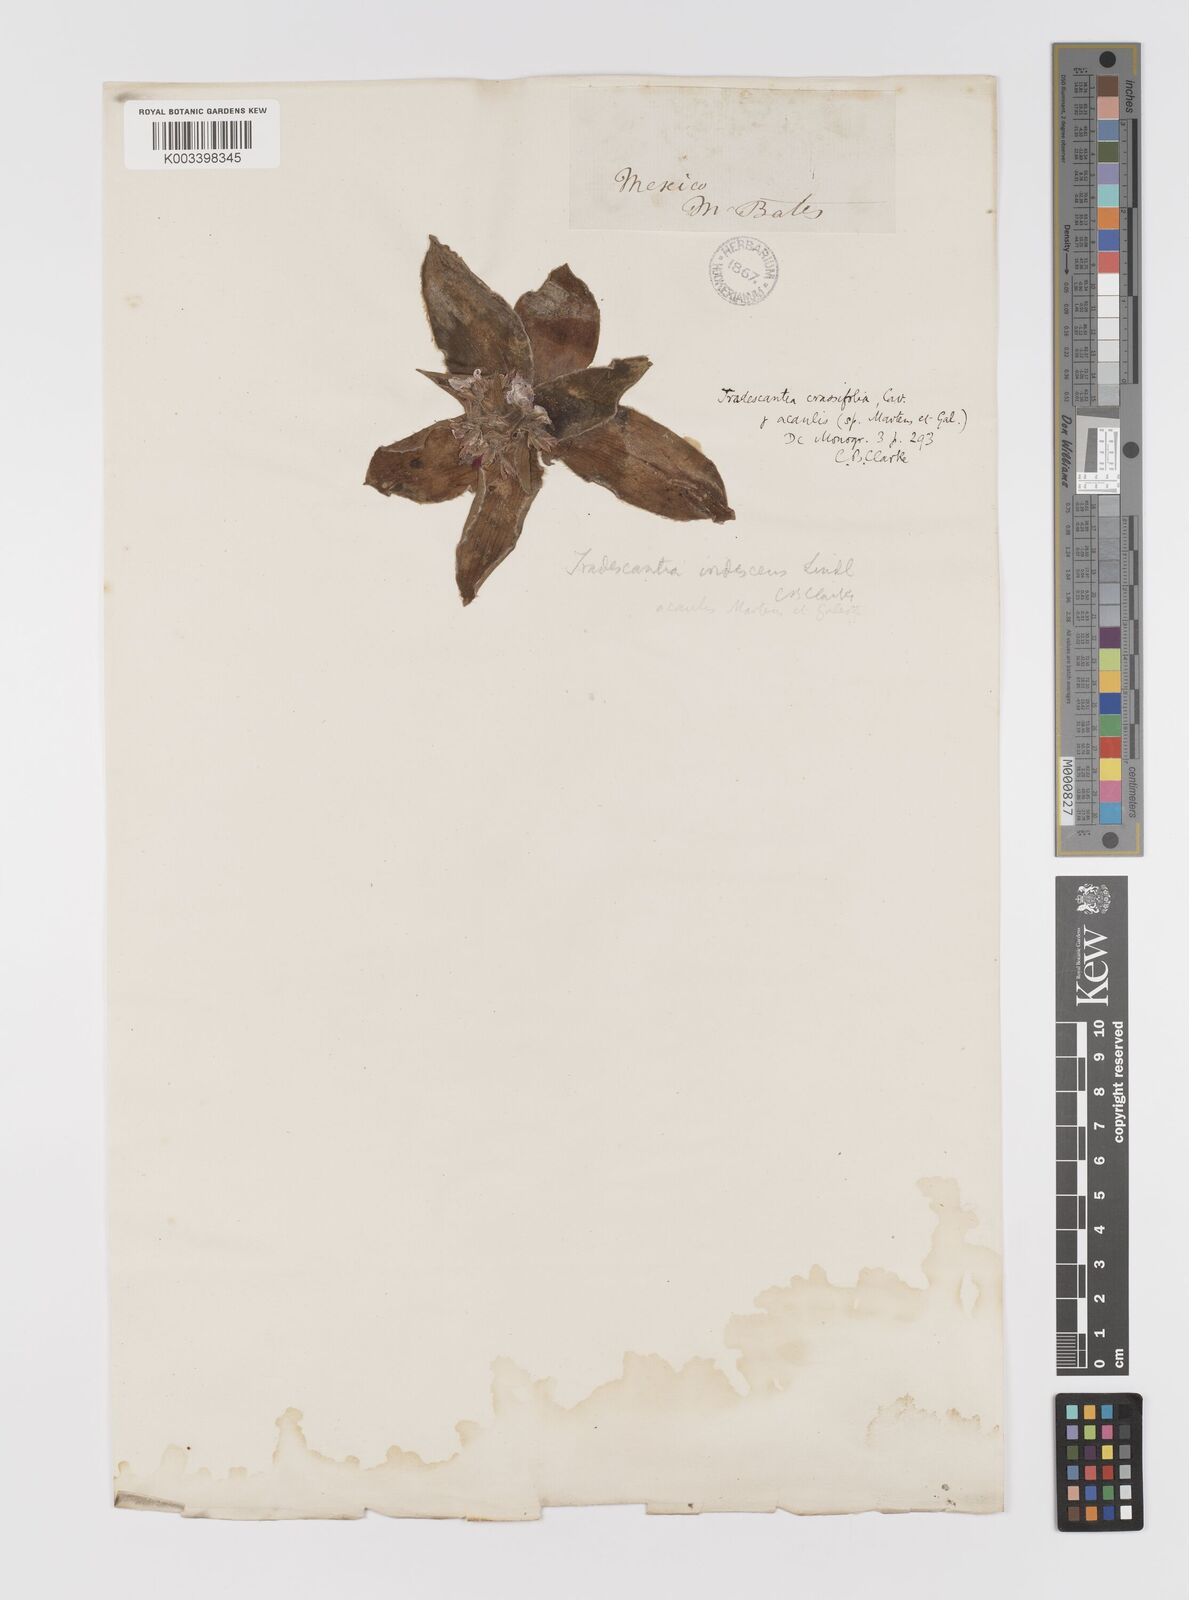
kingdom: Plantae
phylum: Tracheophyta
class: Liliopsida
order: Commelinales
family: Commelinaceae
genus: Tradescantia
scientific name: Tradescantia crassifolia
